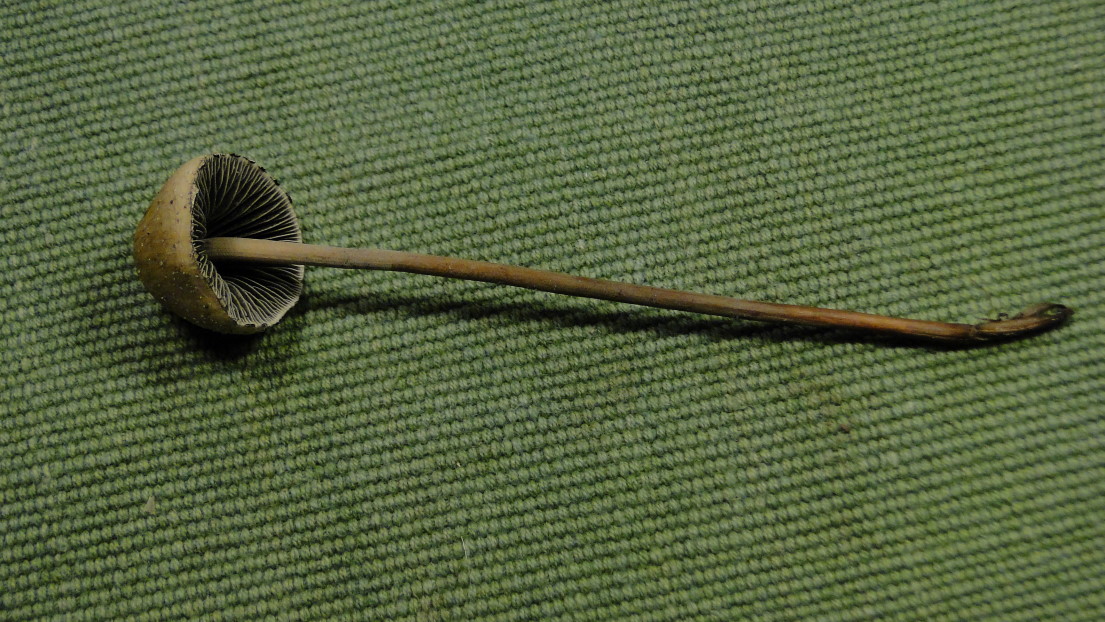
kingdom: Fungi
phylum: Basidiomycota
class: Agaricomycetes
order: Agaricales
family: Bolbitiaceae
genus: Panaeolus
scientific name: Panaeolus papilionaceus
